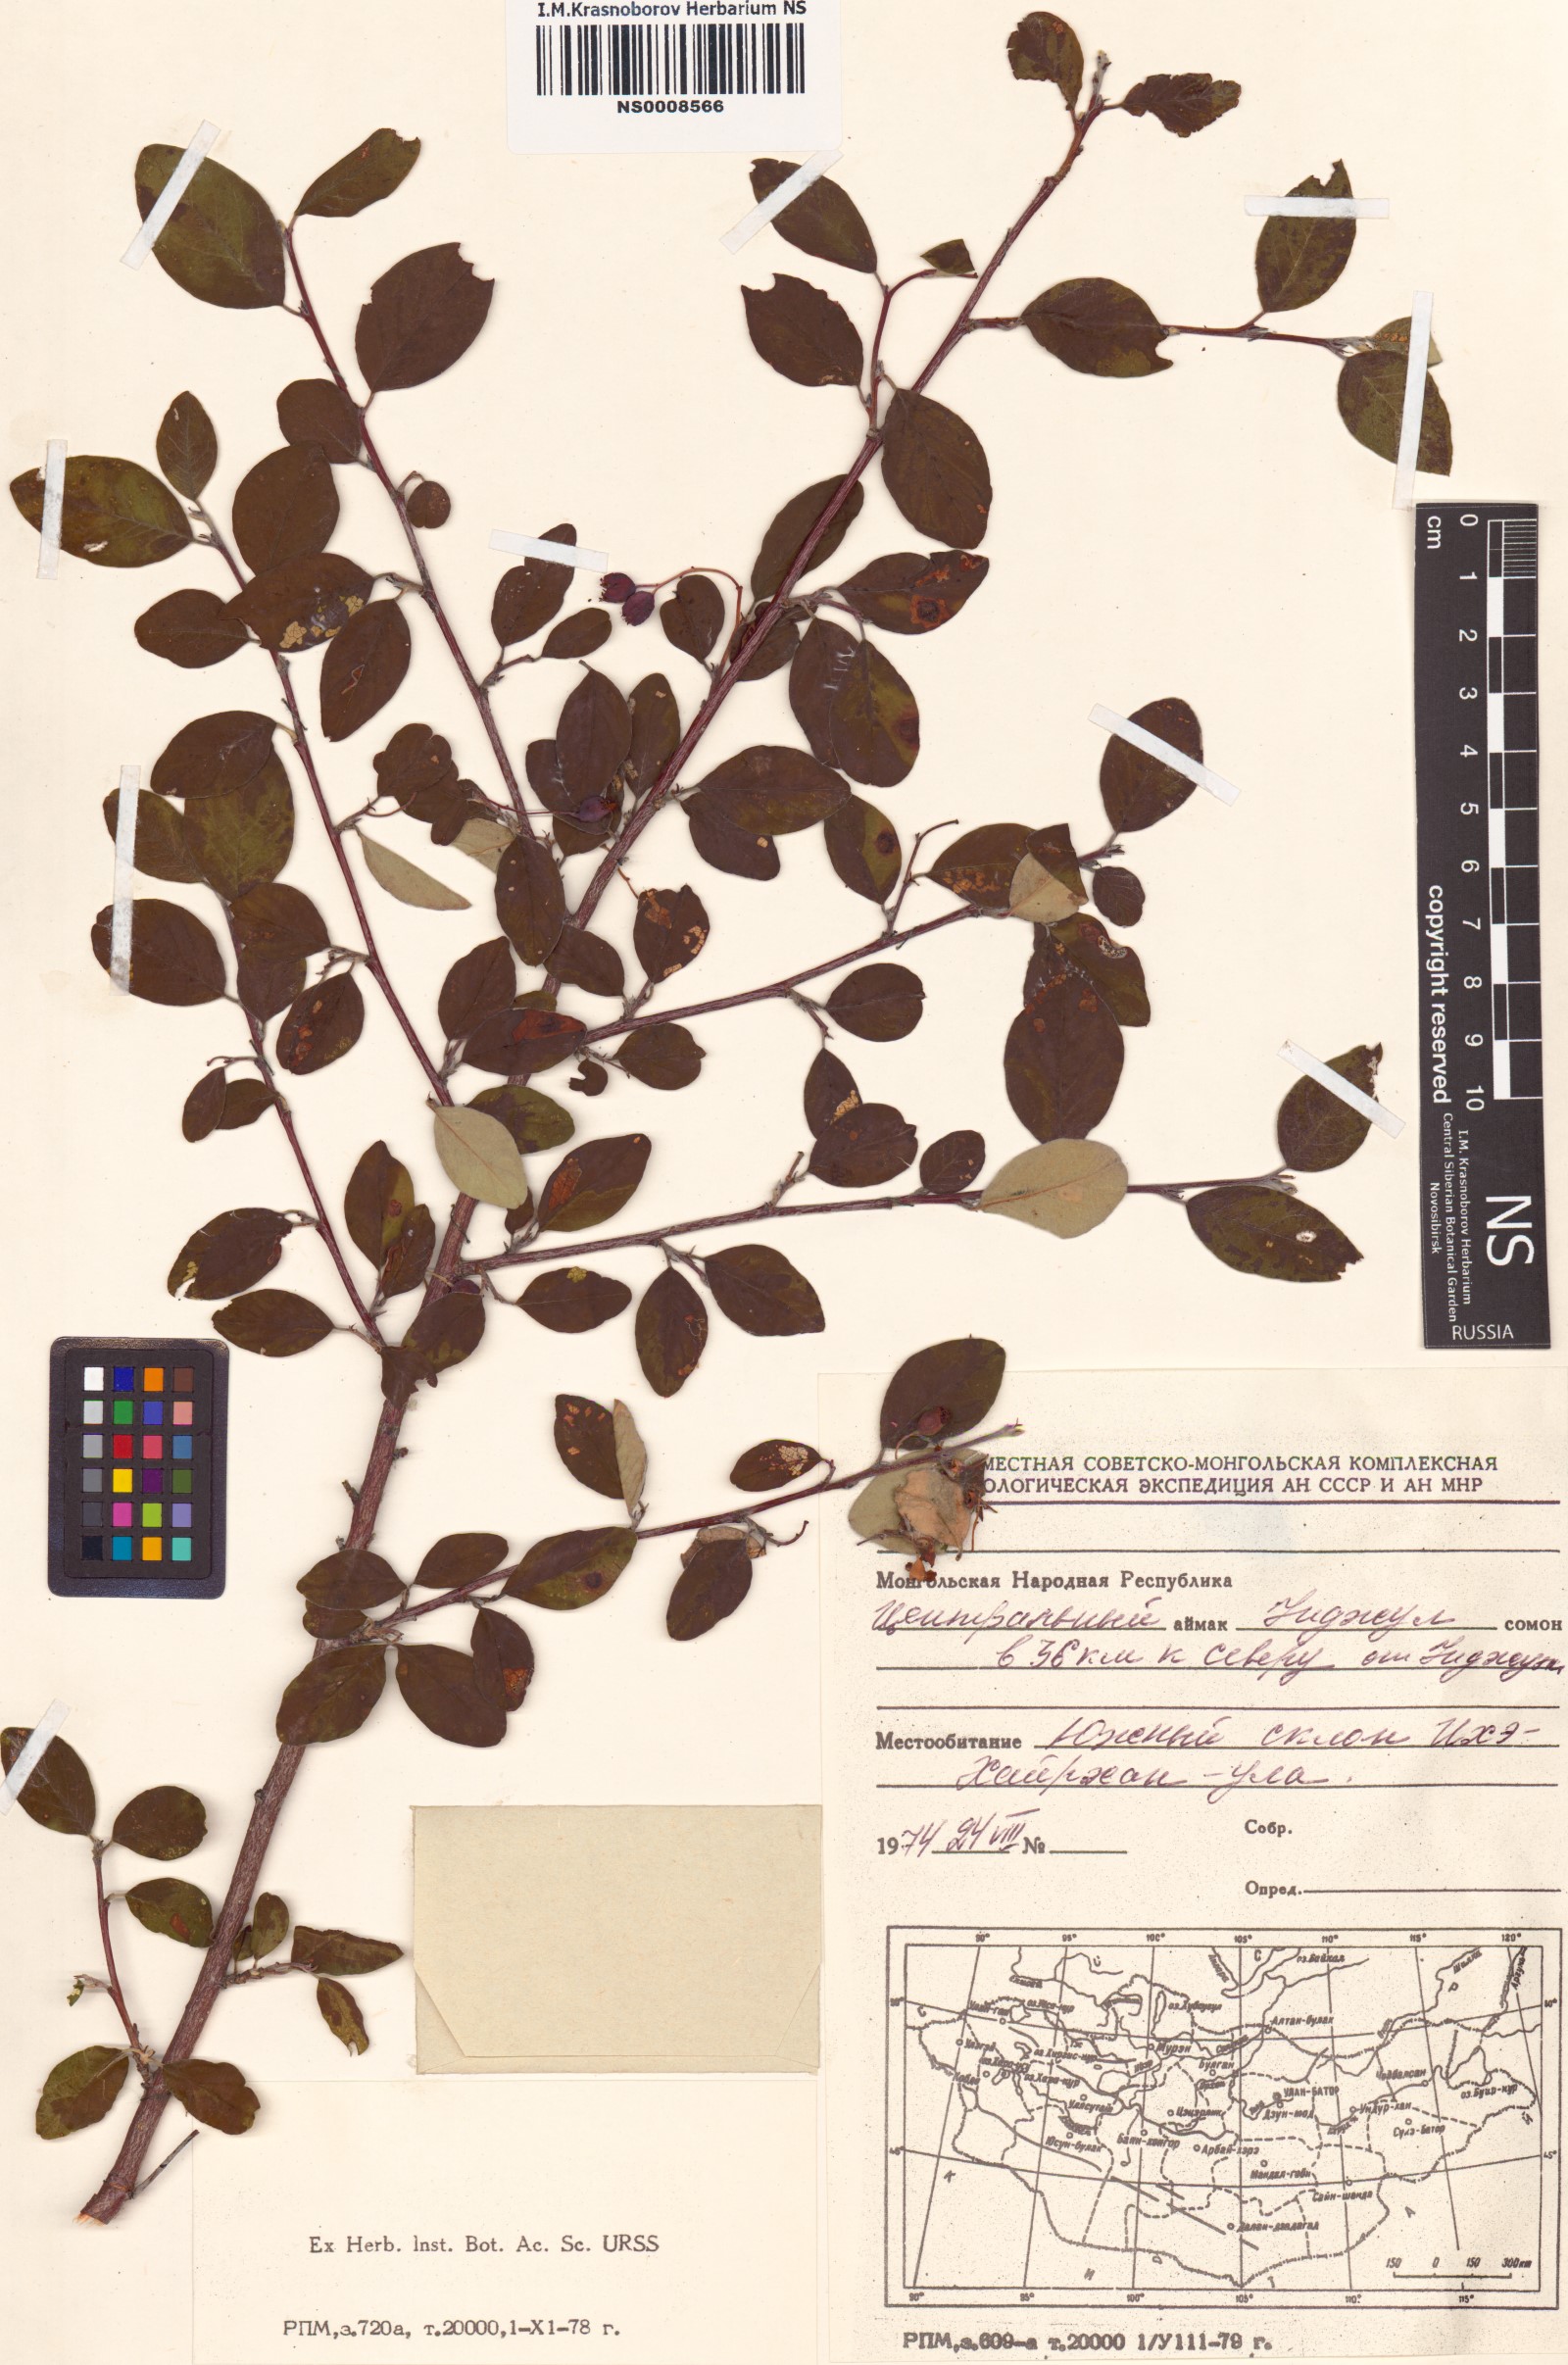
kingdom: Plantae
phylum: Tracheophyta
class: Magnoliopsida
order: Rosales
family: Rosaceae
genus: Cotoneaster
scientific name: Cotoneaster melanocarpus
